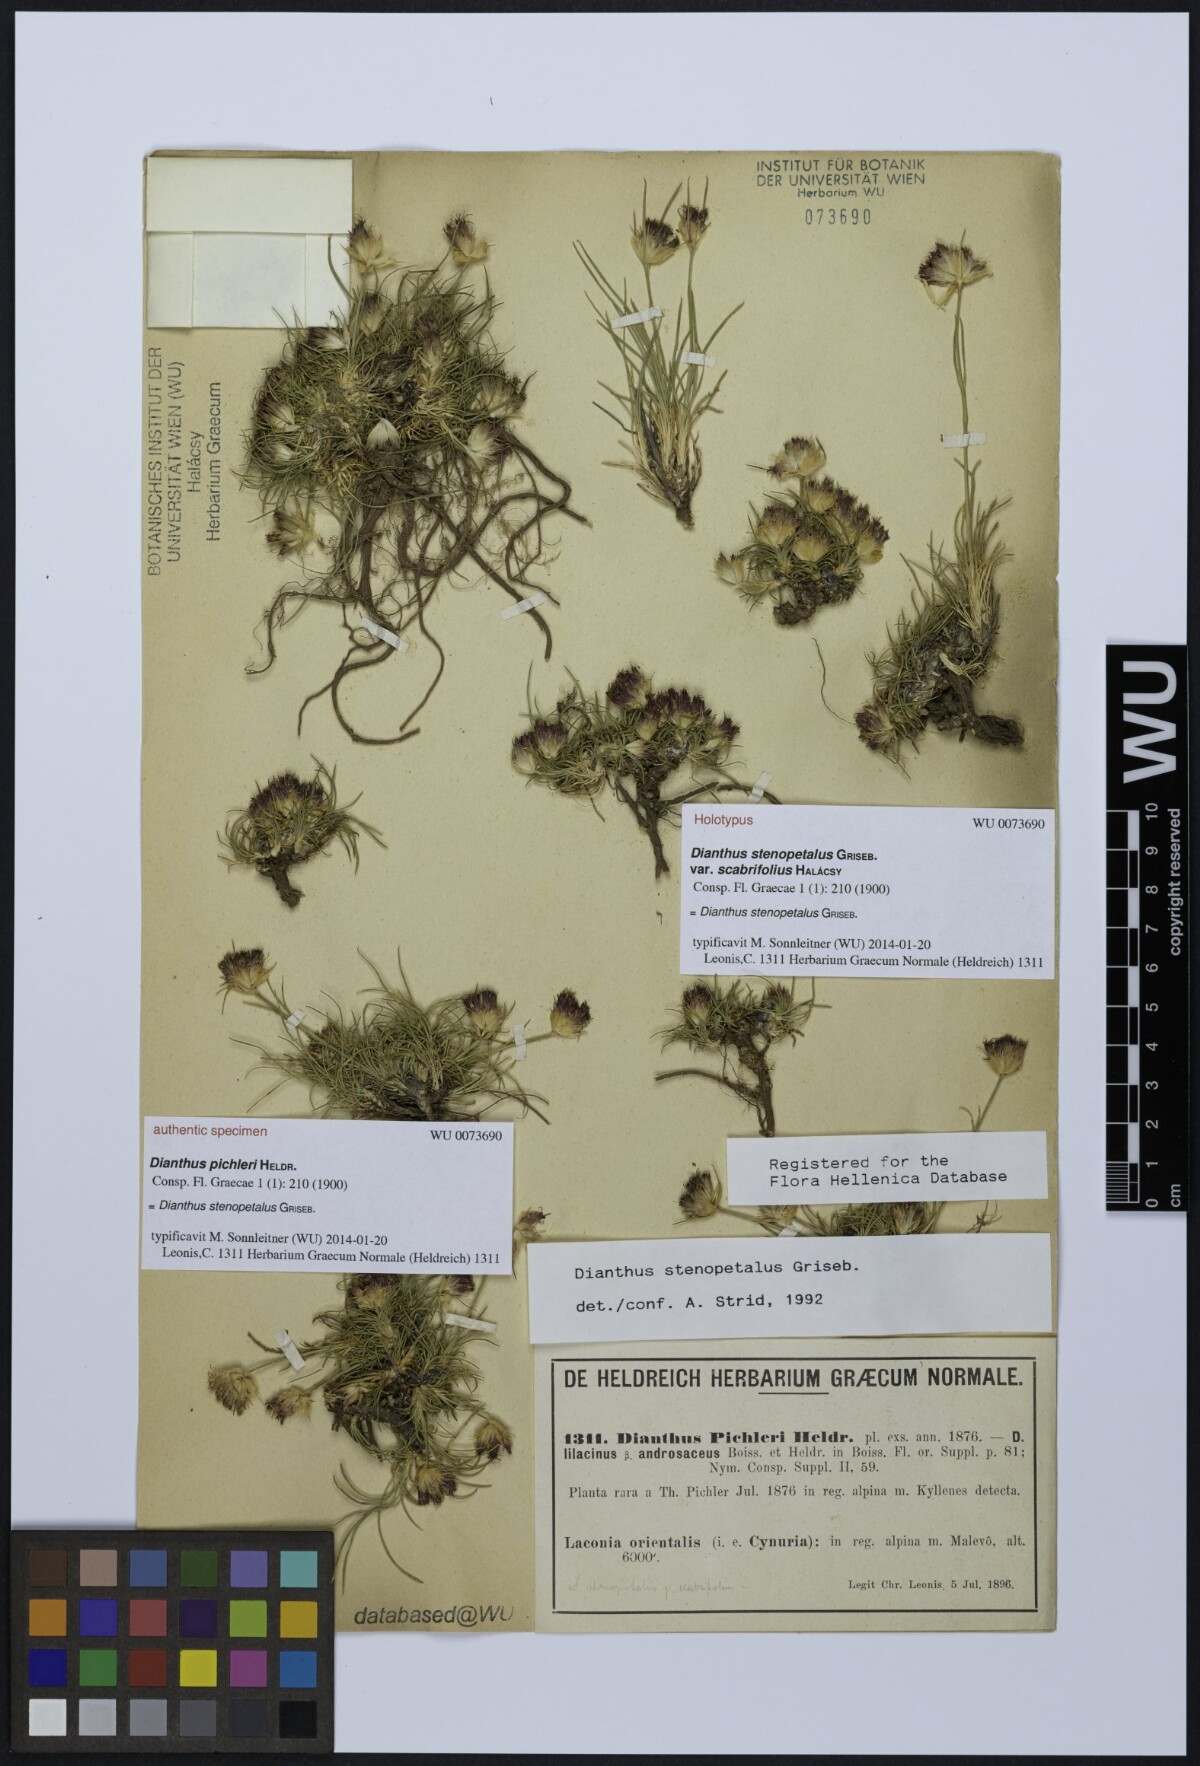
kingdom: Plantae
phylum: Tracheophyta
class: Magnoliopsida
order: Caryophyllales
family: Caryophyllaceae
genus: Dianthus
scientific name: Dianthus stenopetalus
